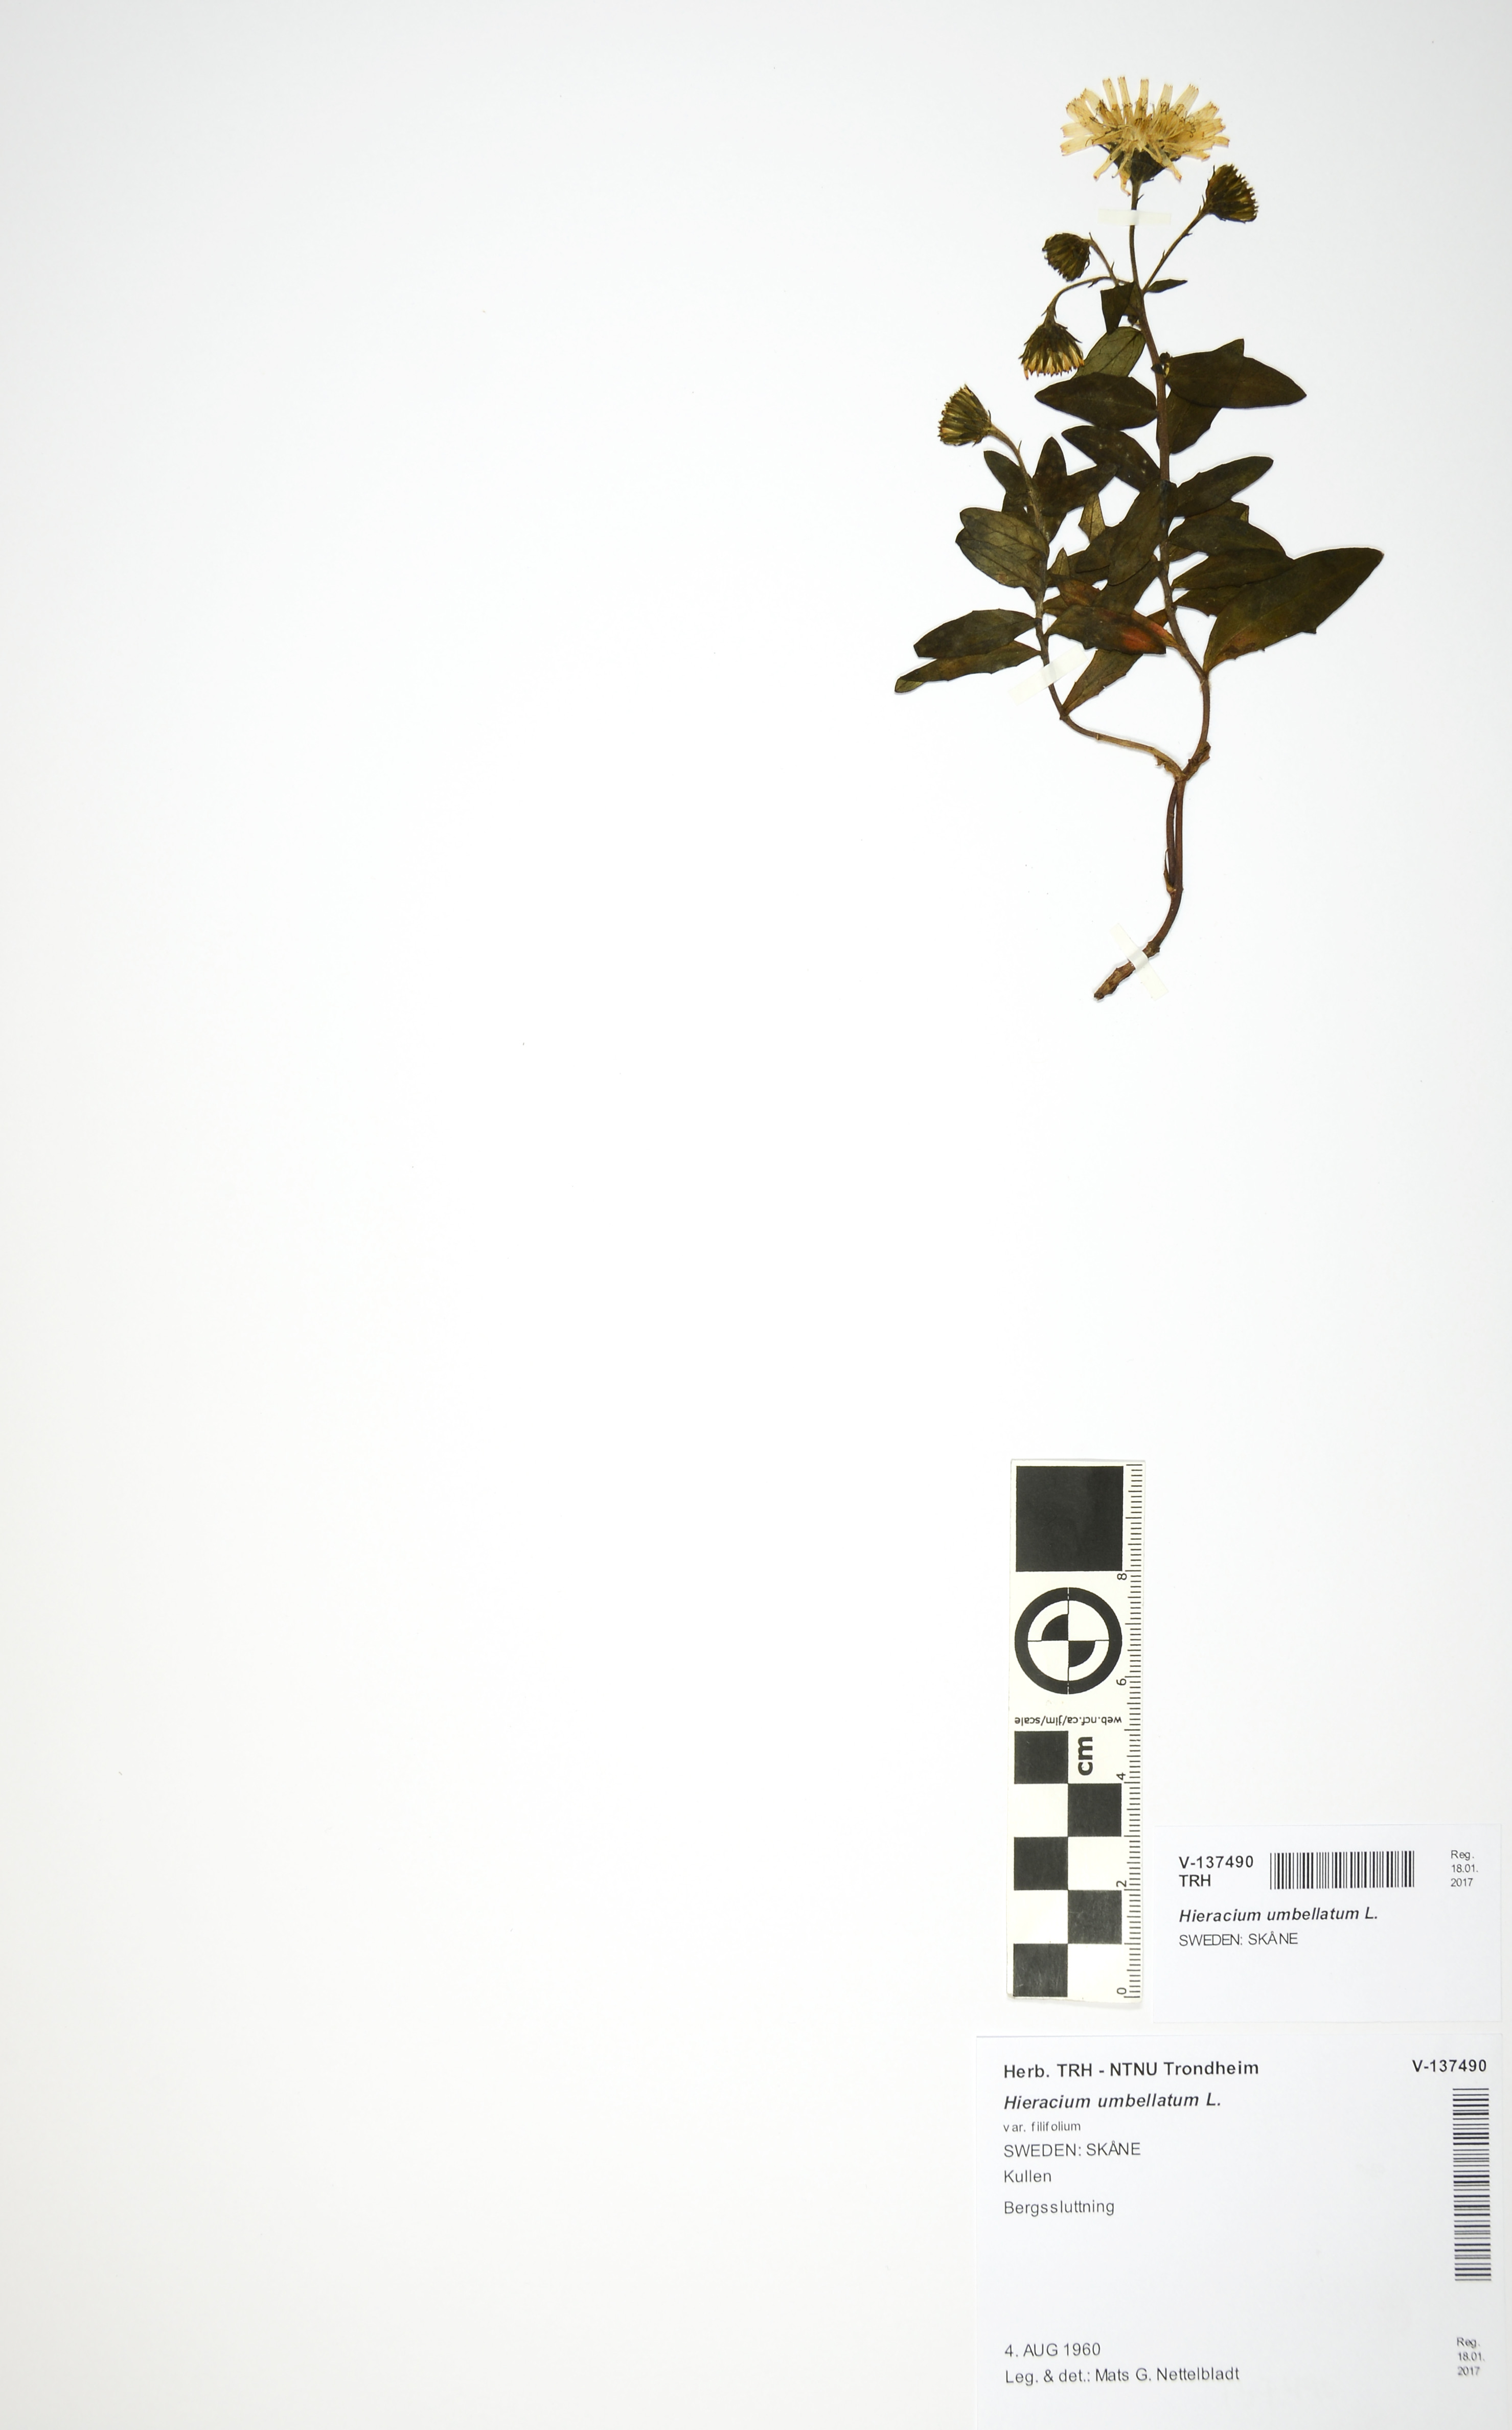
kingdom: Plantae
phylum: Tracheophyta
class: Magnoliopsida
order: Asterales
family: Asteraceae
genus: Hieracium
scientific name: Hieracium umbellatum
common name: Northern hawkweed
